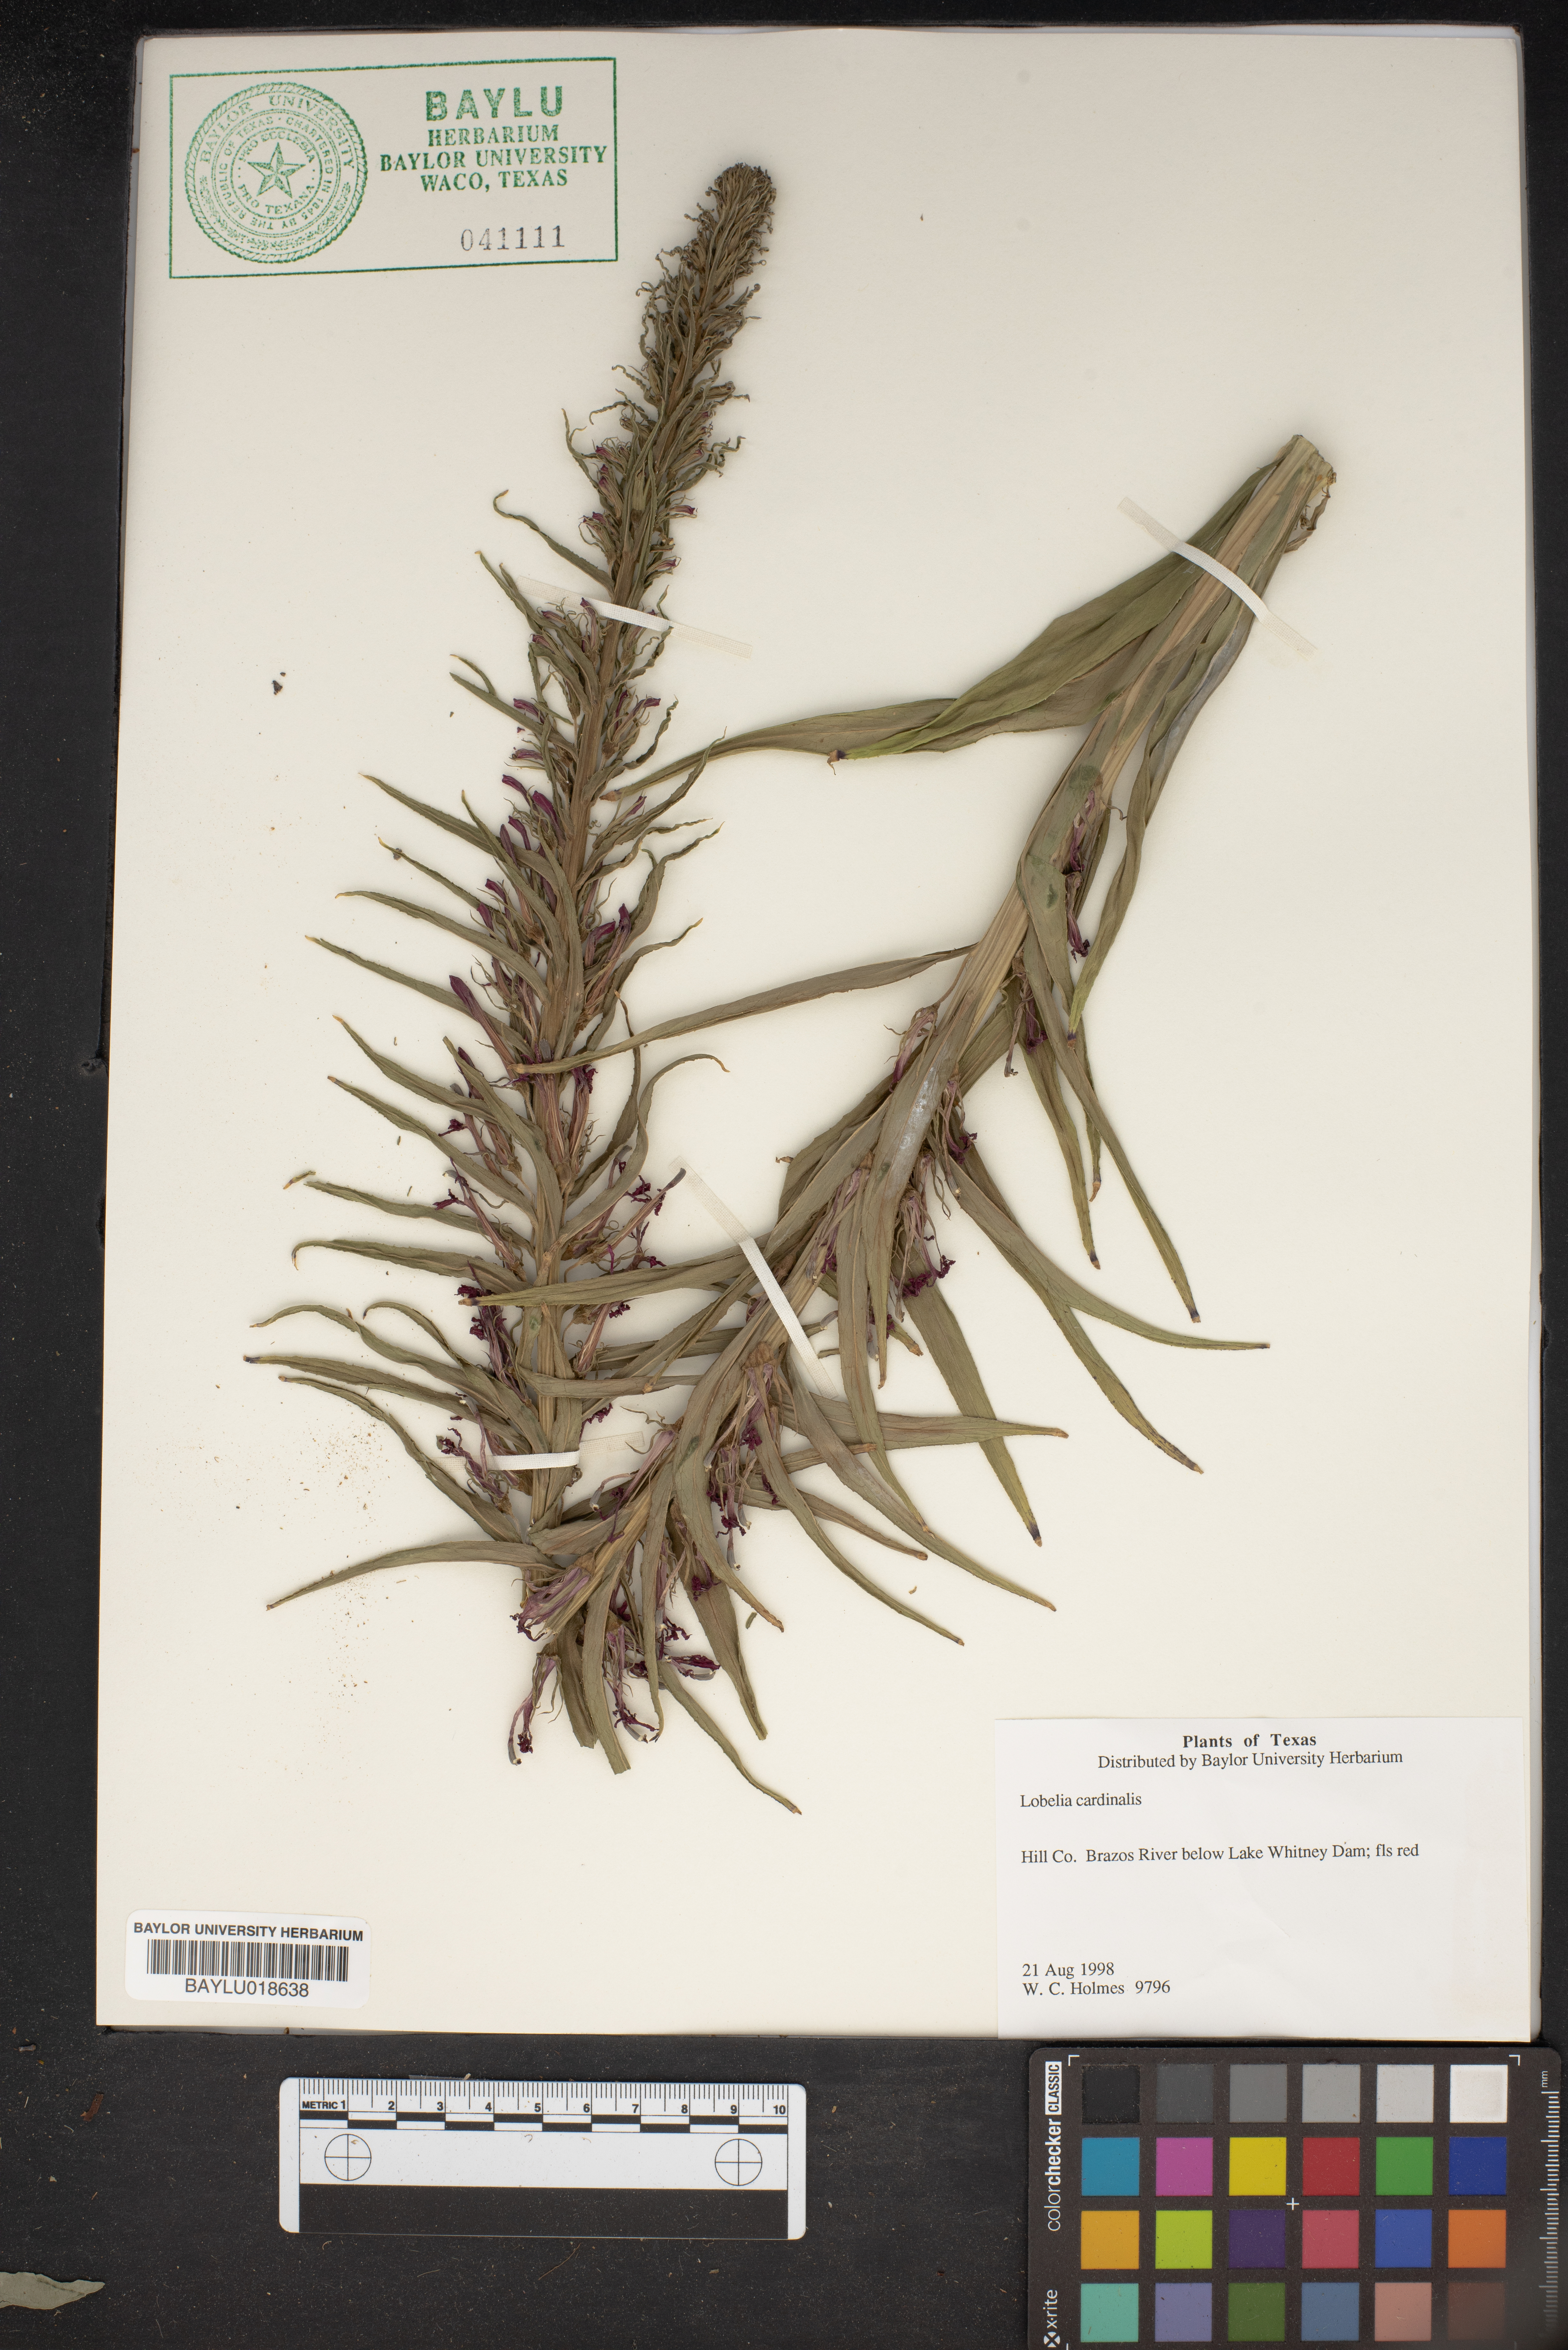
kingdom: Plantae
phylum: Tracheophyta
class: Magnoliopsida
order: Asterales
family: Campanulaceae
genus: Lobelia
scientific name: Lobelia cardinalis
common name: Cardinal flower
